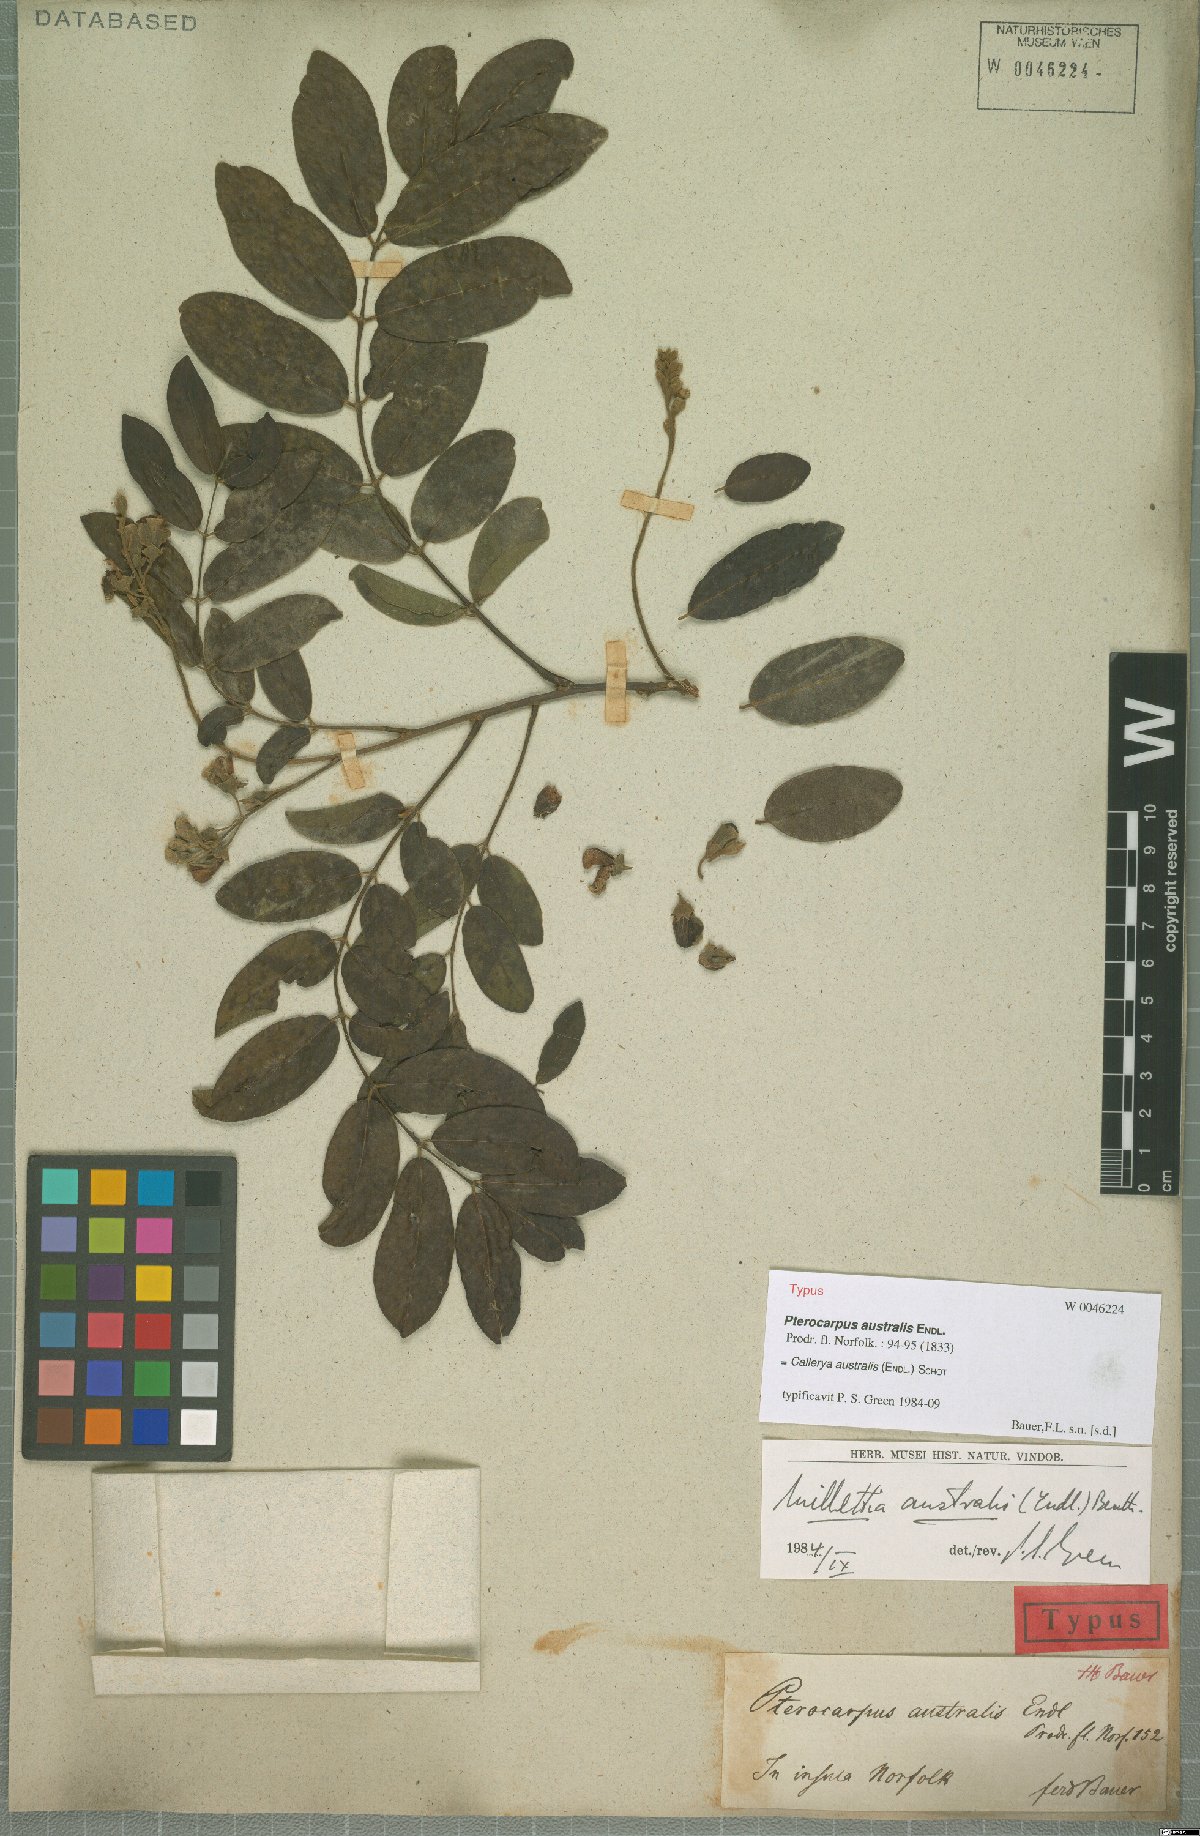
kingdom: Plantae
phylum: Tracheophyta
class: Magnoliopsida
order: Fabales
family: Fabaceae
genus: Austrocallerya
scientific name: Austrocallerya australis
